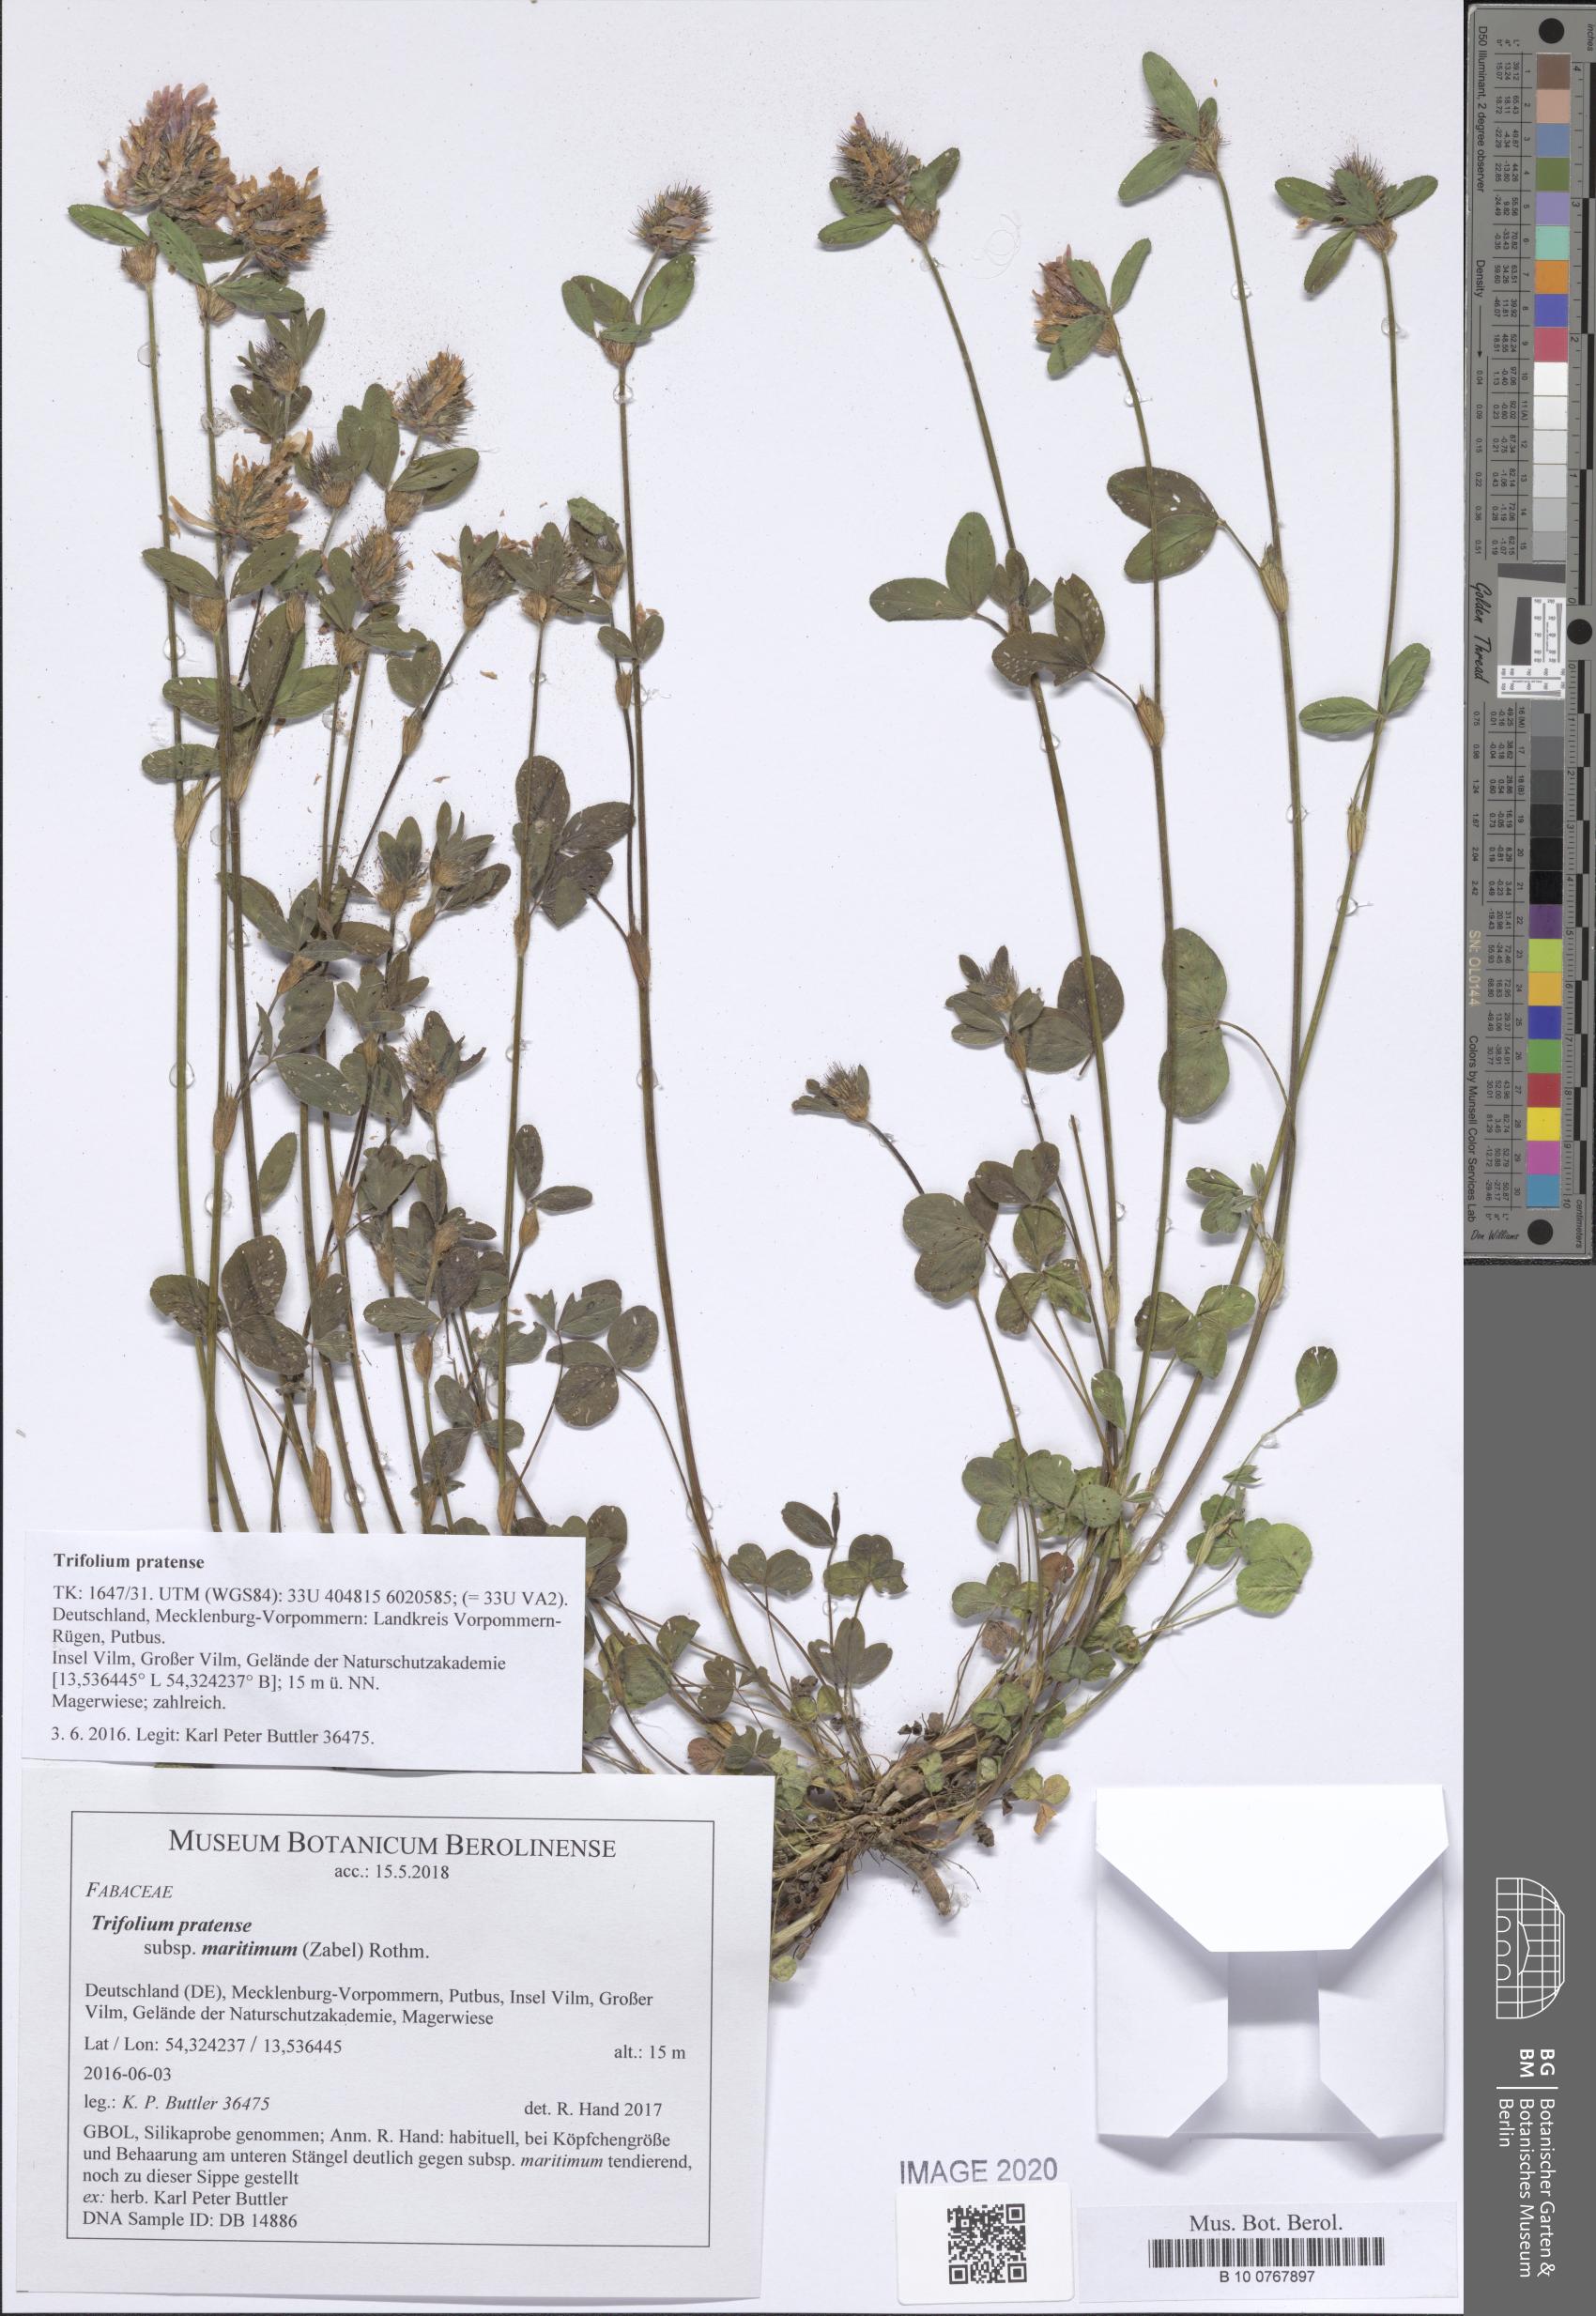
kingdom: Plantae
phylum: Tracheophyta
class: Magnoliopsida
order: Fabales
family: Fabaceae
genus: Trifolium
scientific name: Trifolium pratense
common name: Red clover
